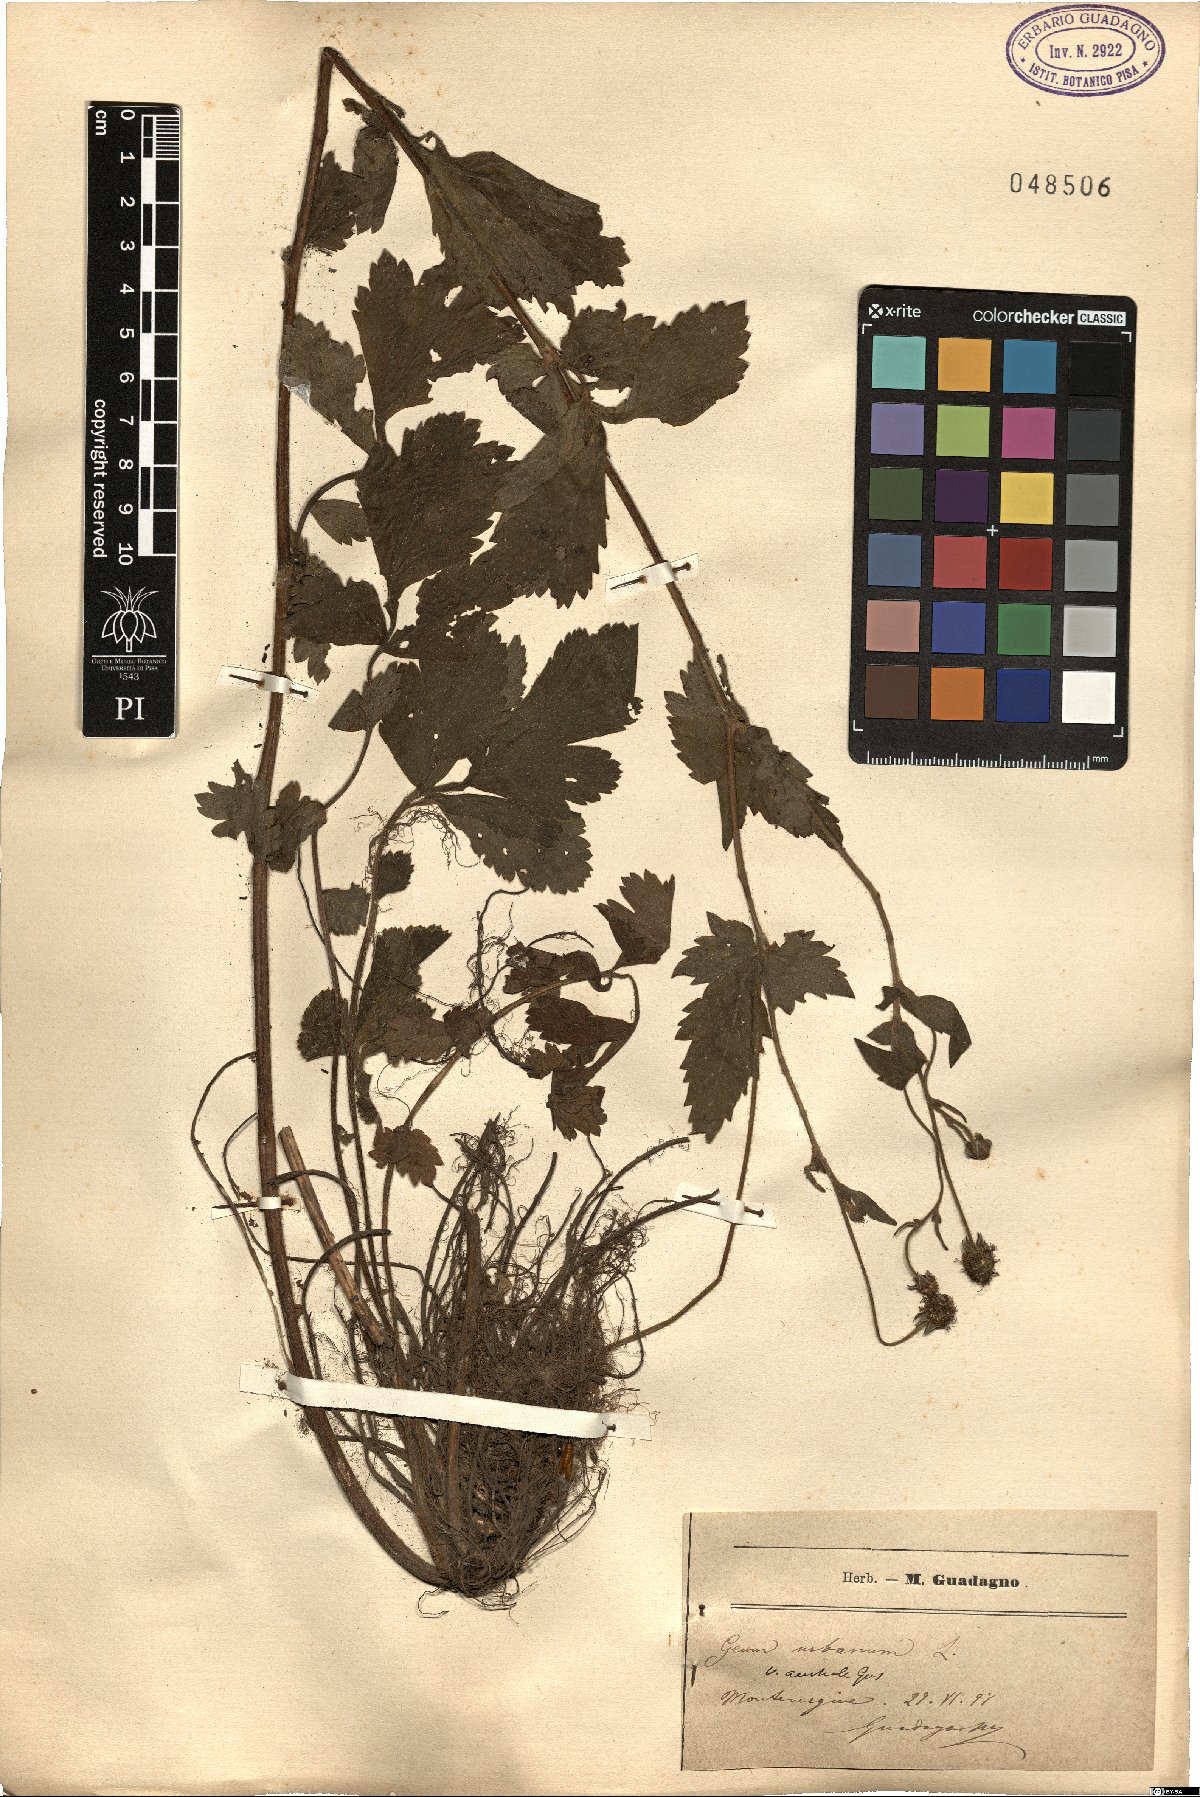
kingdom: Plantae
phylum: Tracheophyta
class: Magnoliopsida
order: Rosales
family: Rosaceae
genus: Geum
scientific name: Geum urbanum
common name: Wood avens
